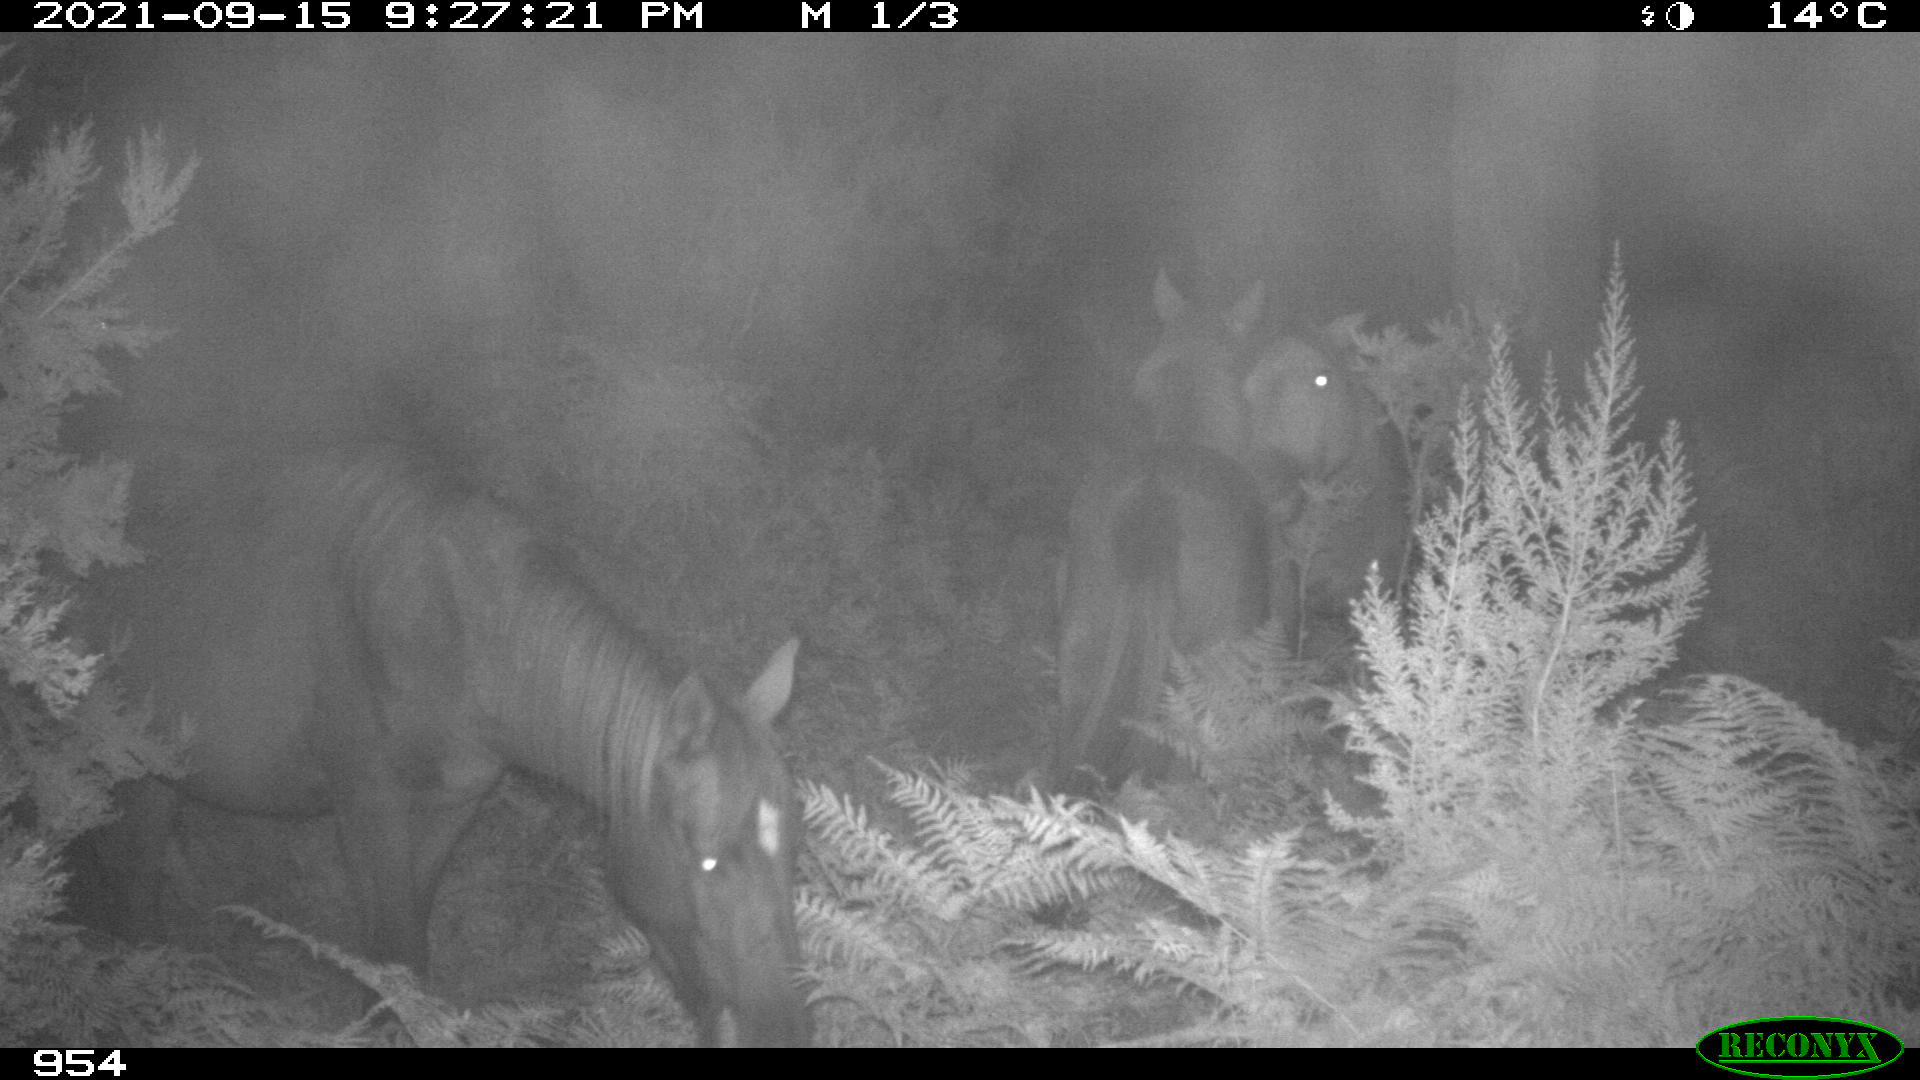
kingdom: Animalia
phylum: Chordata
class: Mammalia
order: Perissodactyla
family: Equidae
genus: Equus
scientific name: Equus caballus
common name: Horse
